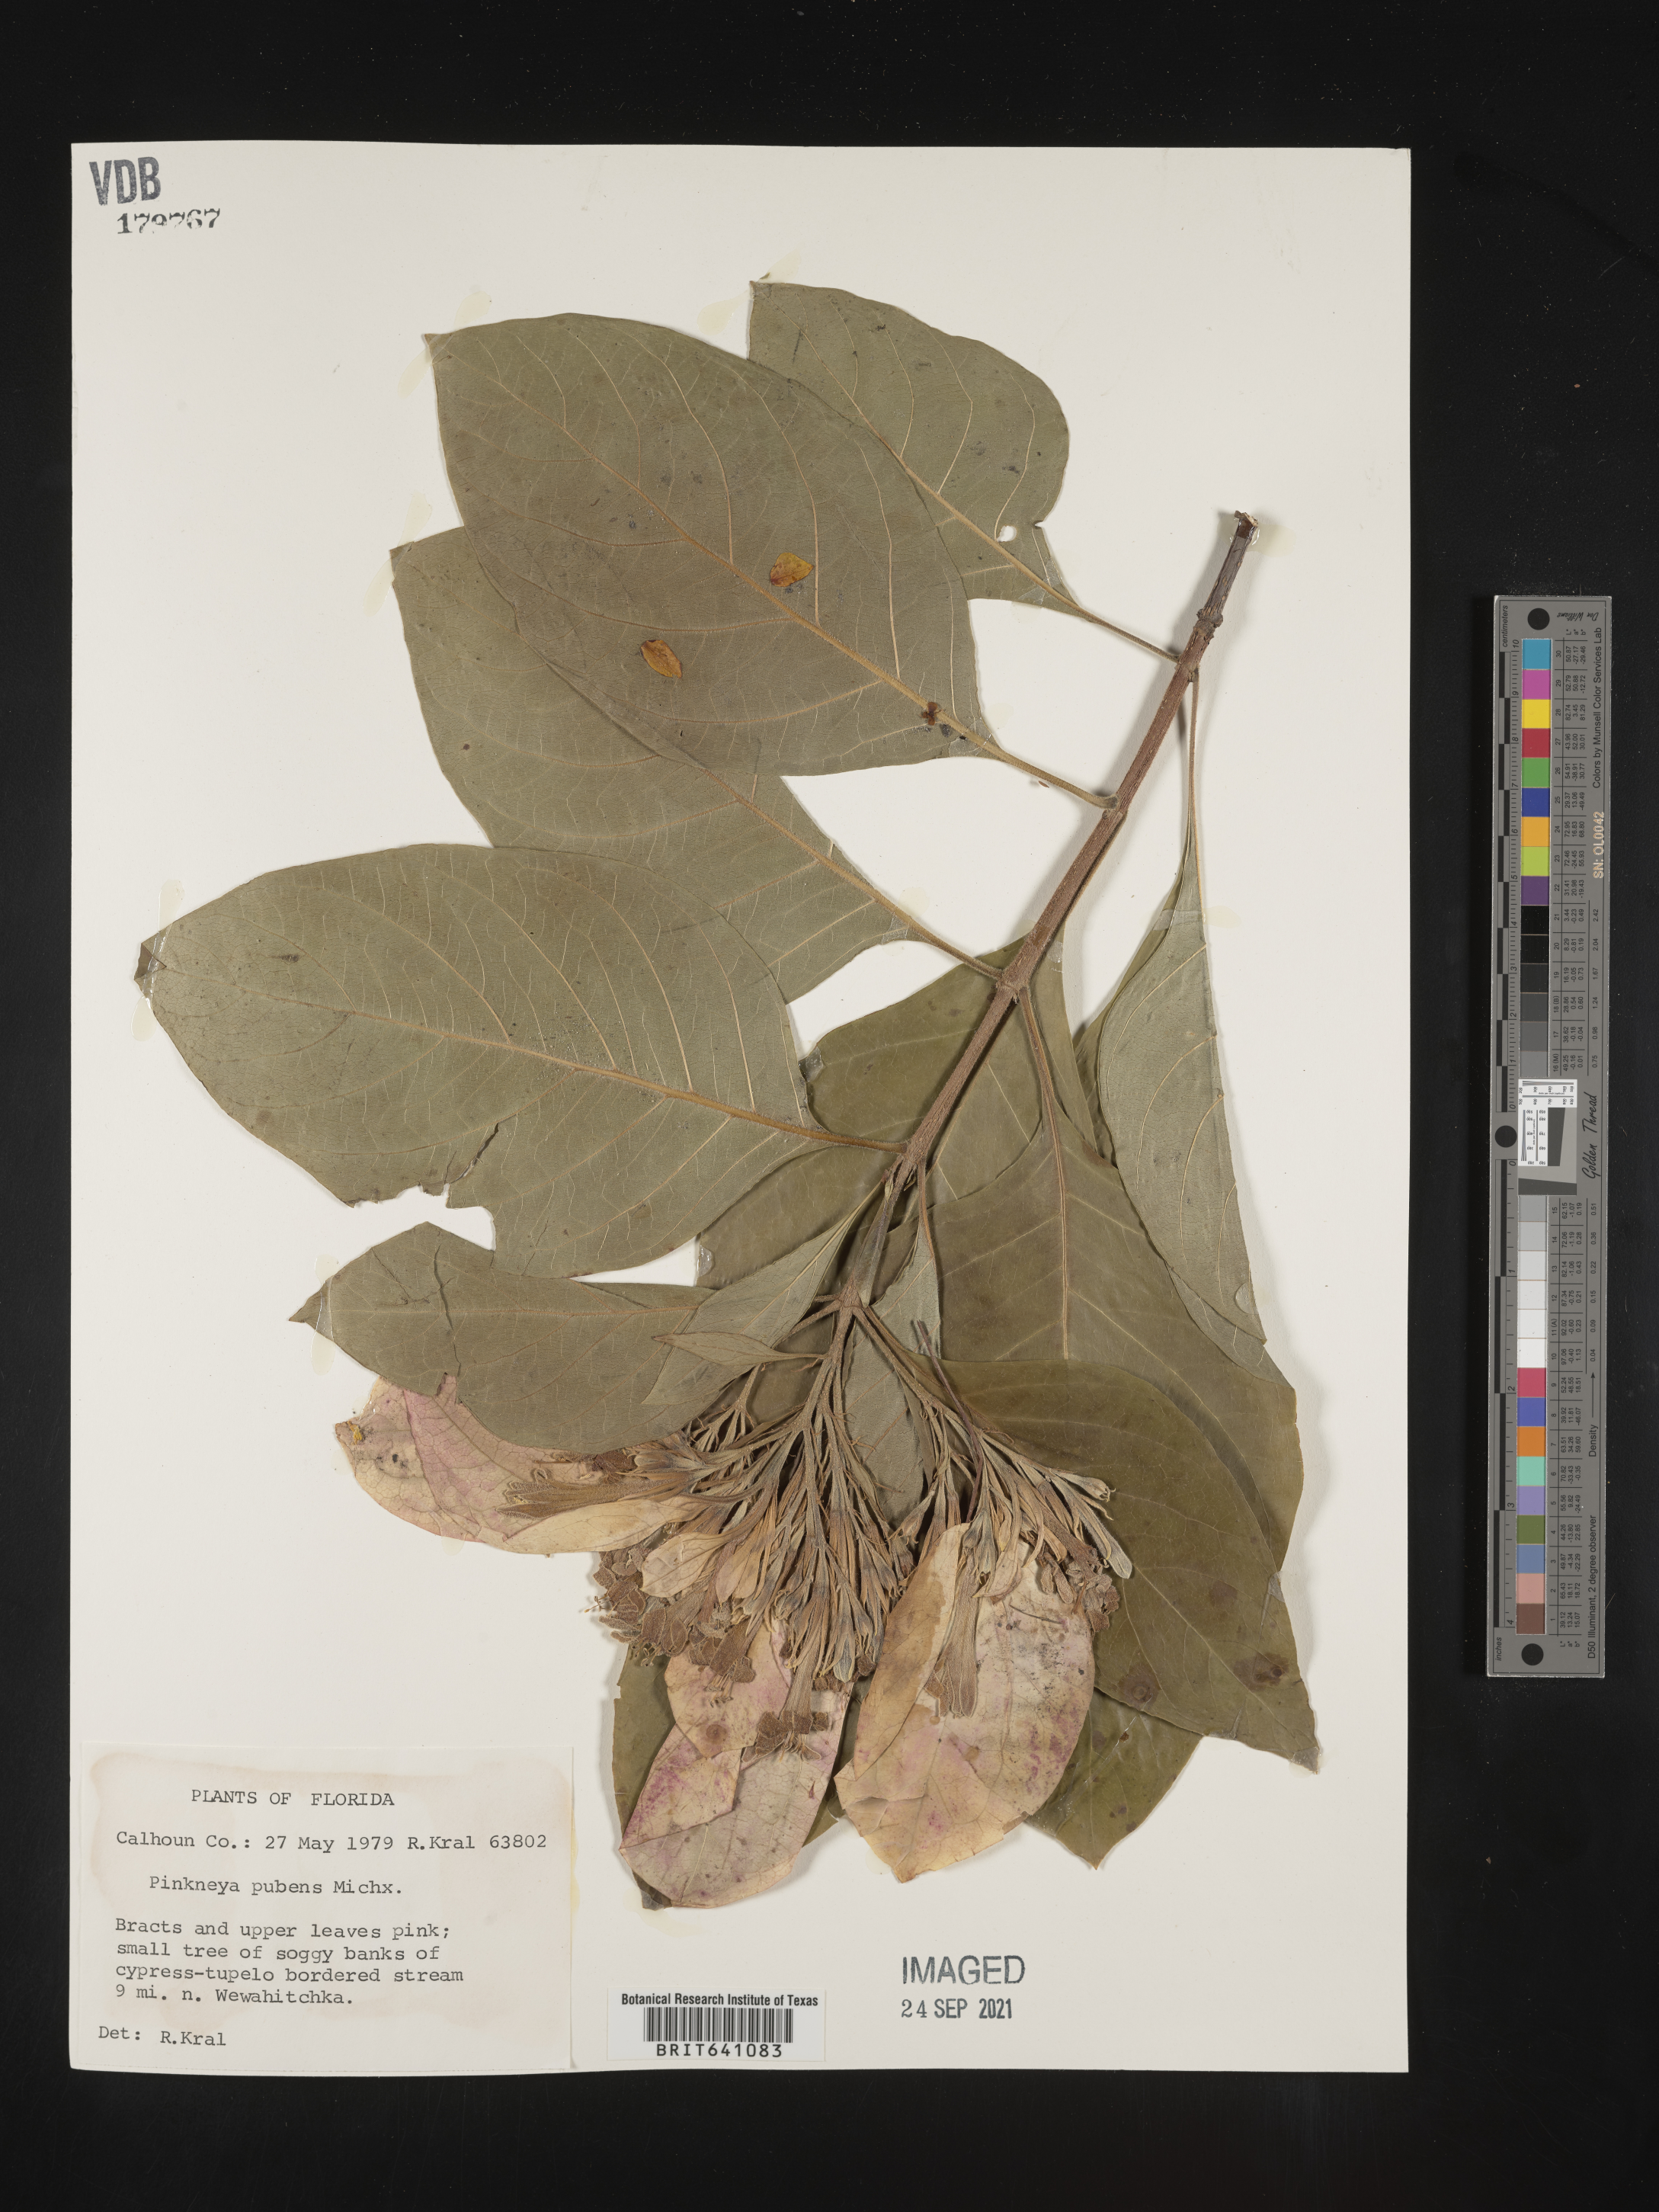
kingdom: Plantae
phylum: Tracheophyta
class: Magnoliopsida
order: Gentianales
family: Rubiaceae
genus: Pinckneya
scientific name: Pinckneya pubens
